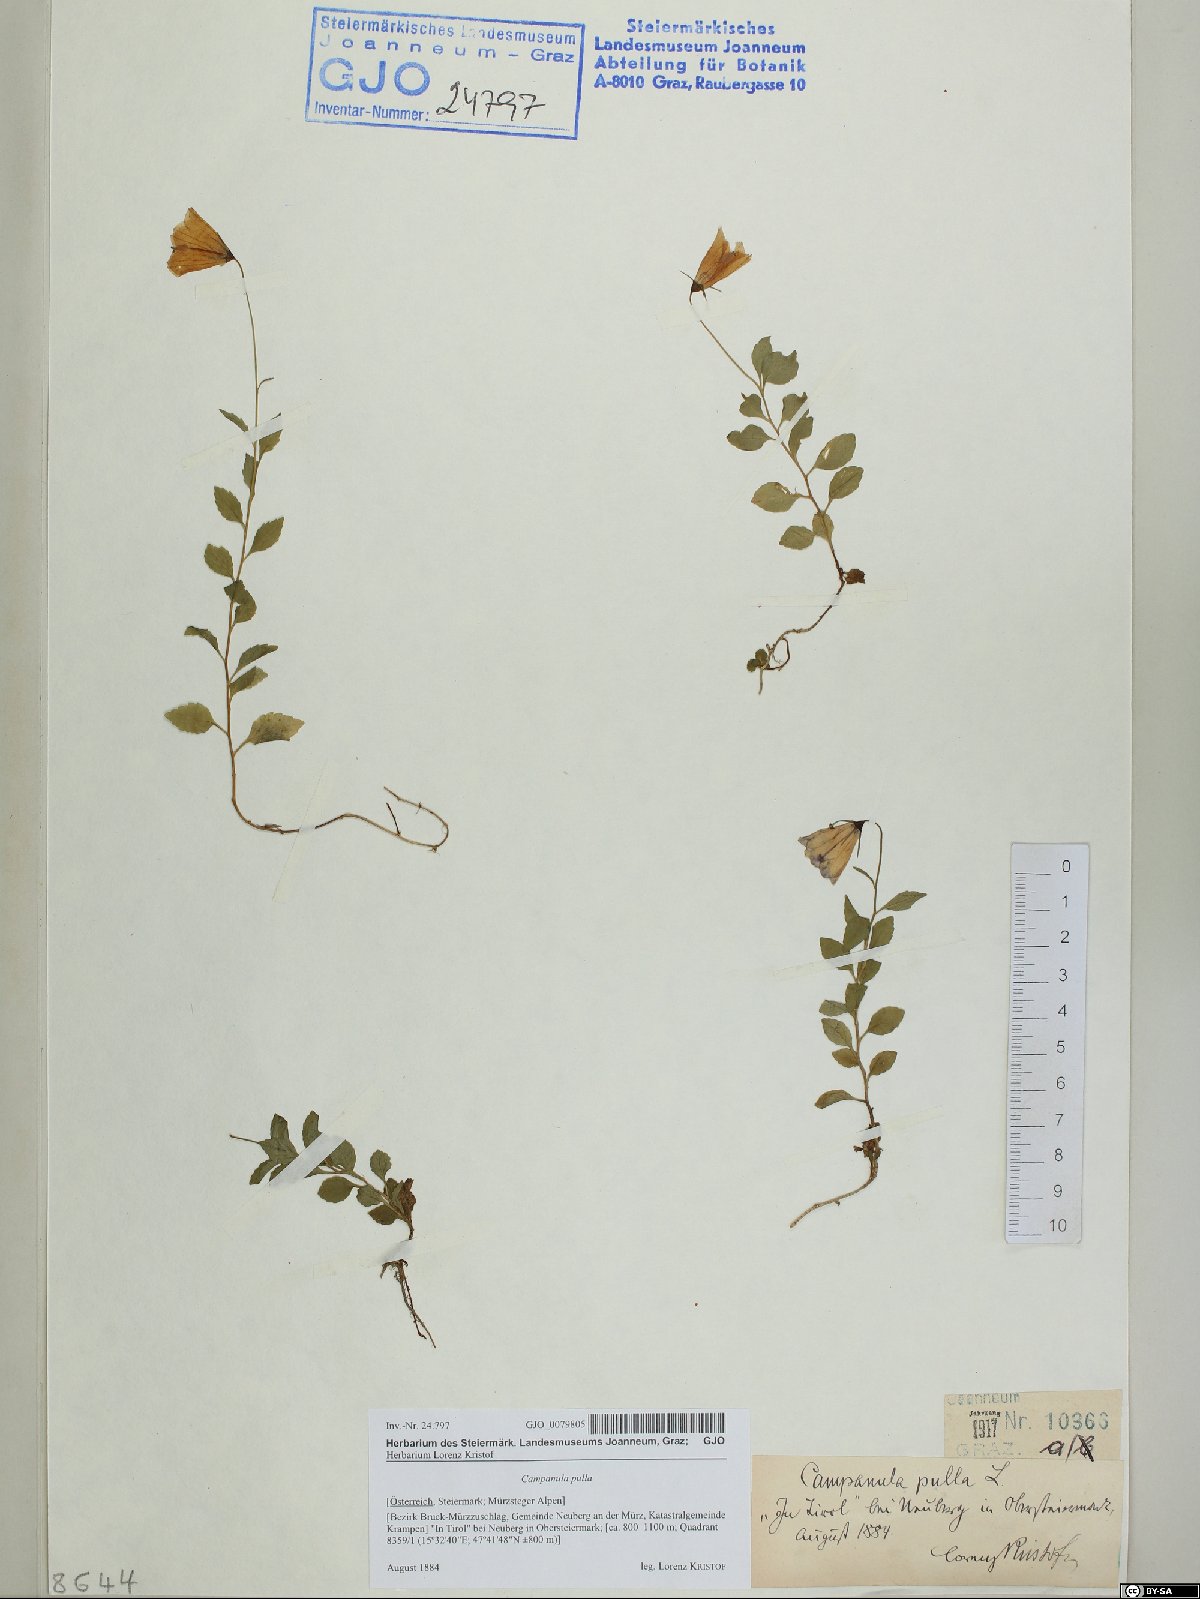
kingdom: Plantae
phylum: Tracheophyta
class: Magnoliopsida
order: Asterales
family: Campanulaceae
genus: Campanula
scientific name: Campanula pulla
